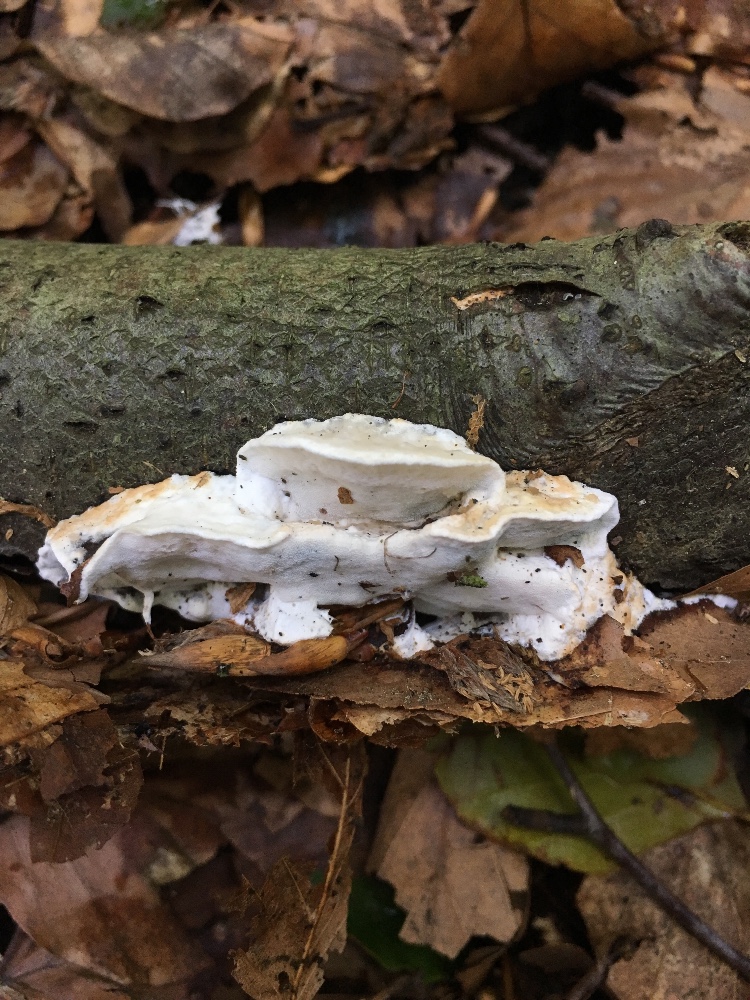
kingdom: Fungi
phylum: Basidiomycota
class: Agaricomycetes
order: Polyporales
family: Polyporaceae
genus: Cyanosporus
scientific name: Cyanosporus alni
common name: blegblå kødporesvamp
